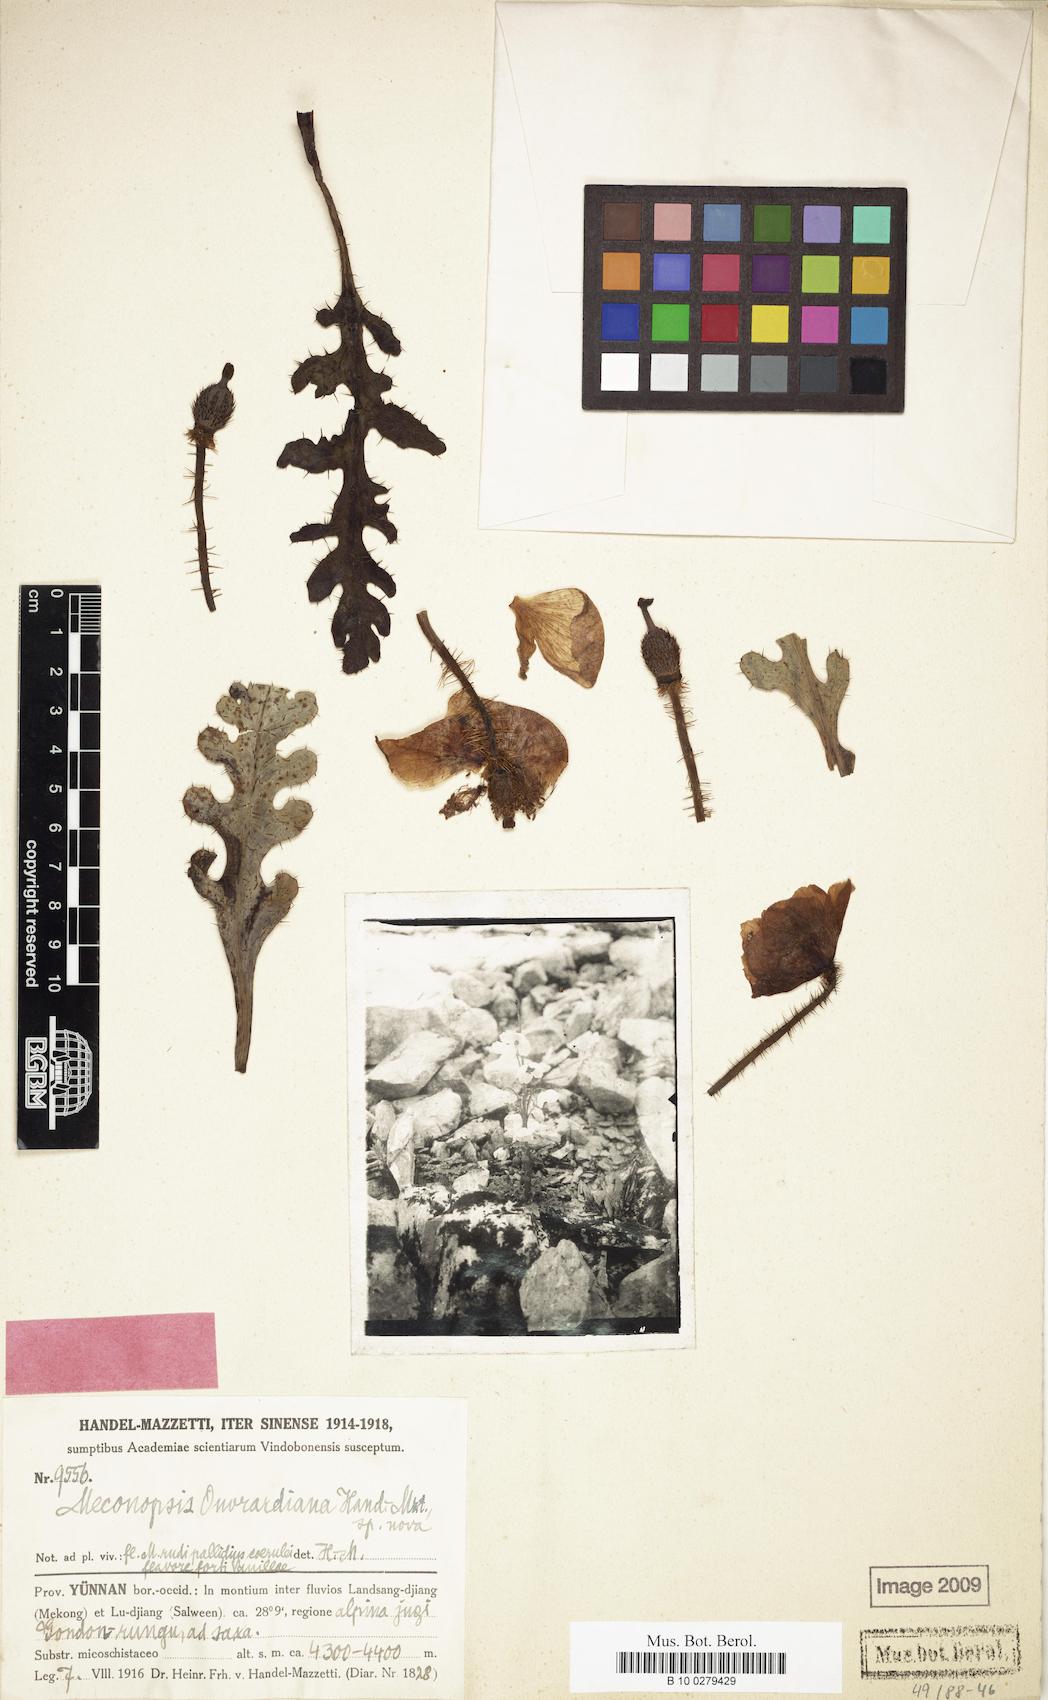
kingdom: Plantae
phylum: Tracheophyta
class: Magnoliopsida
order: Ranunculales
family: Papaveraceae
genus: Meconopsis
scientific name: Meconopsis speciosa
